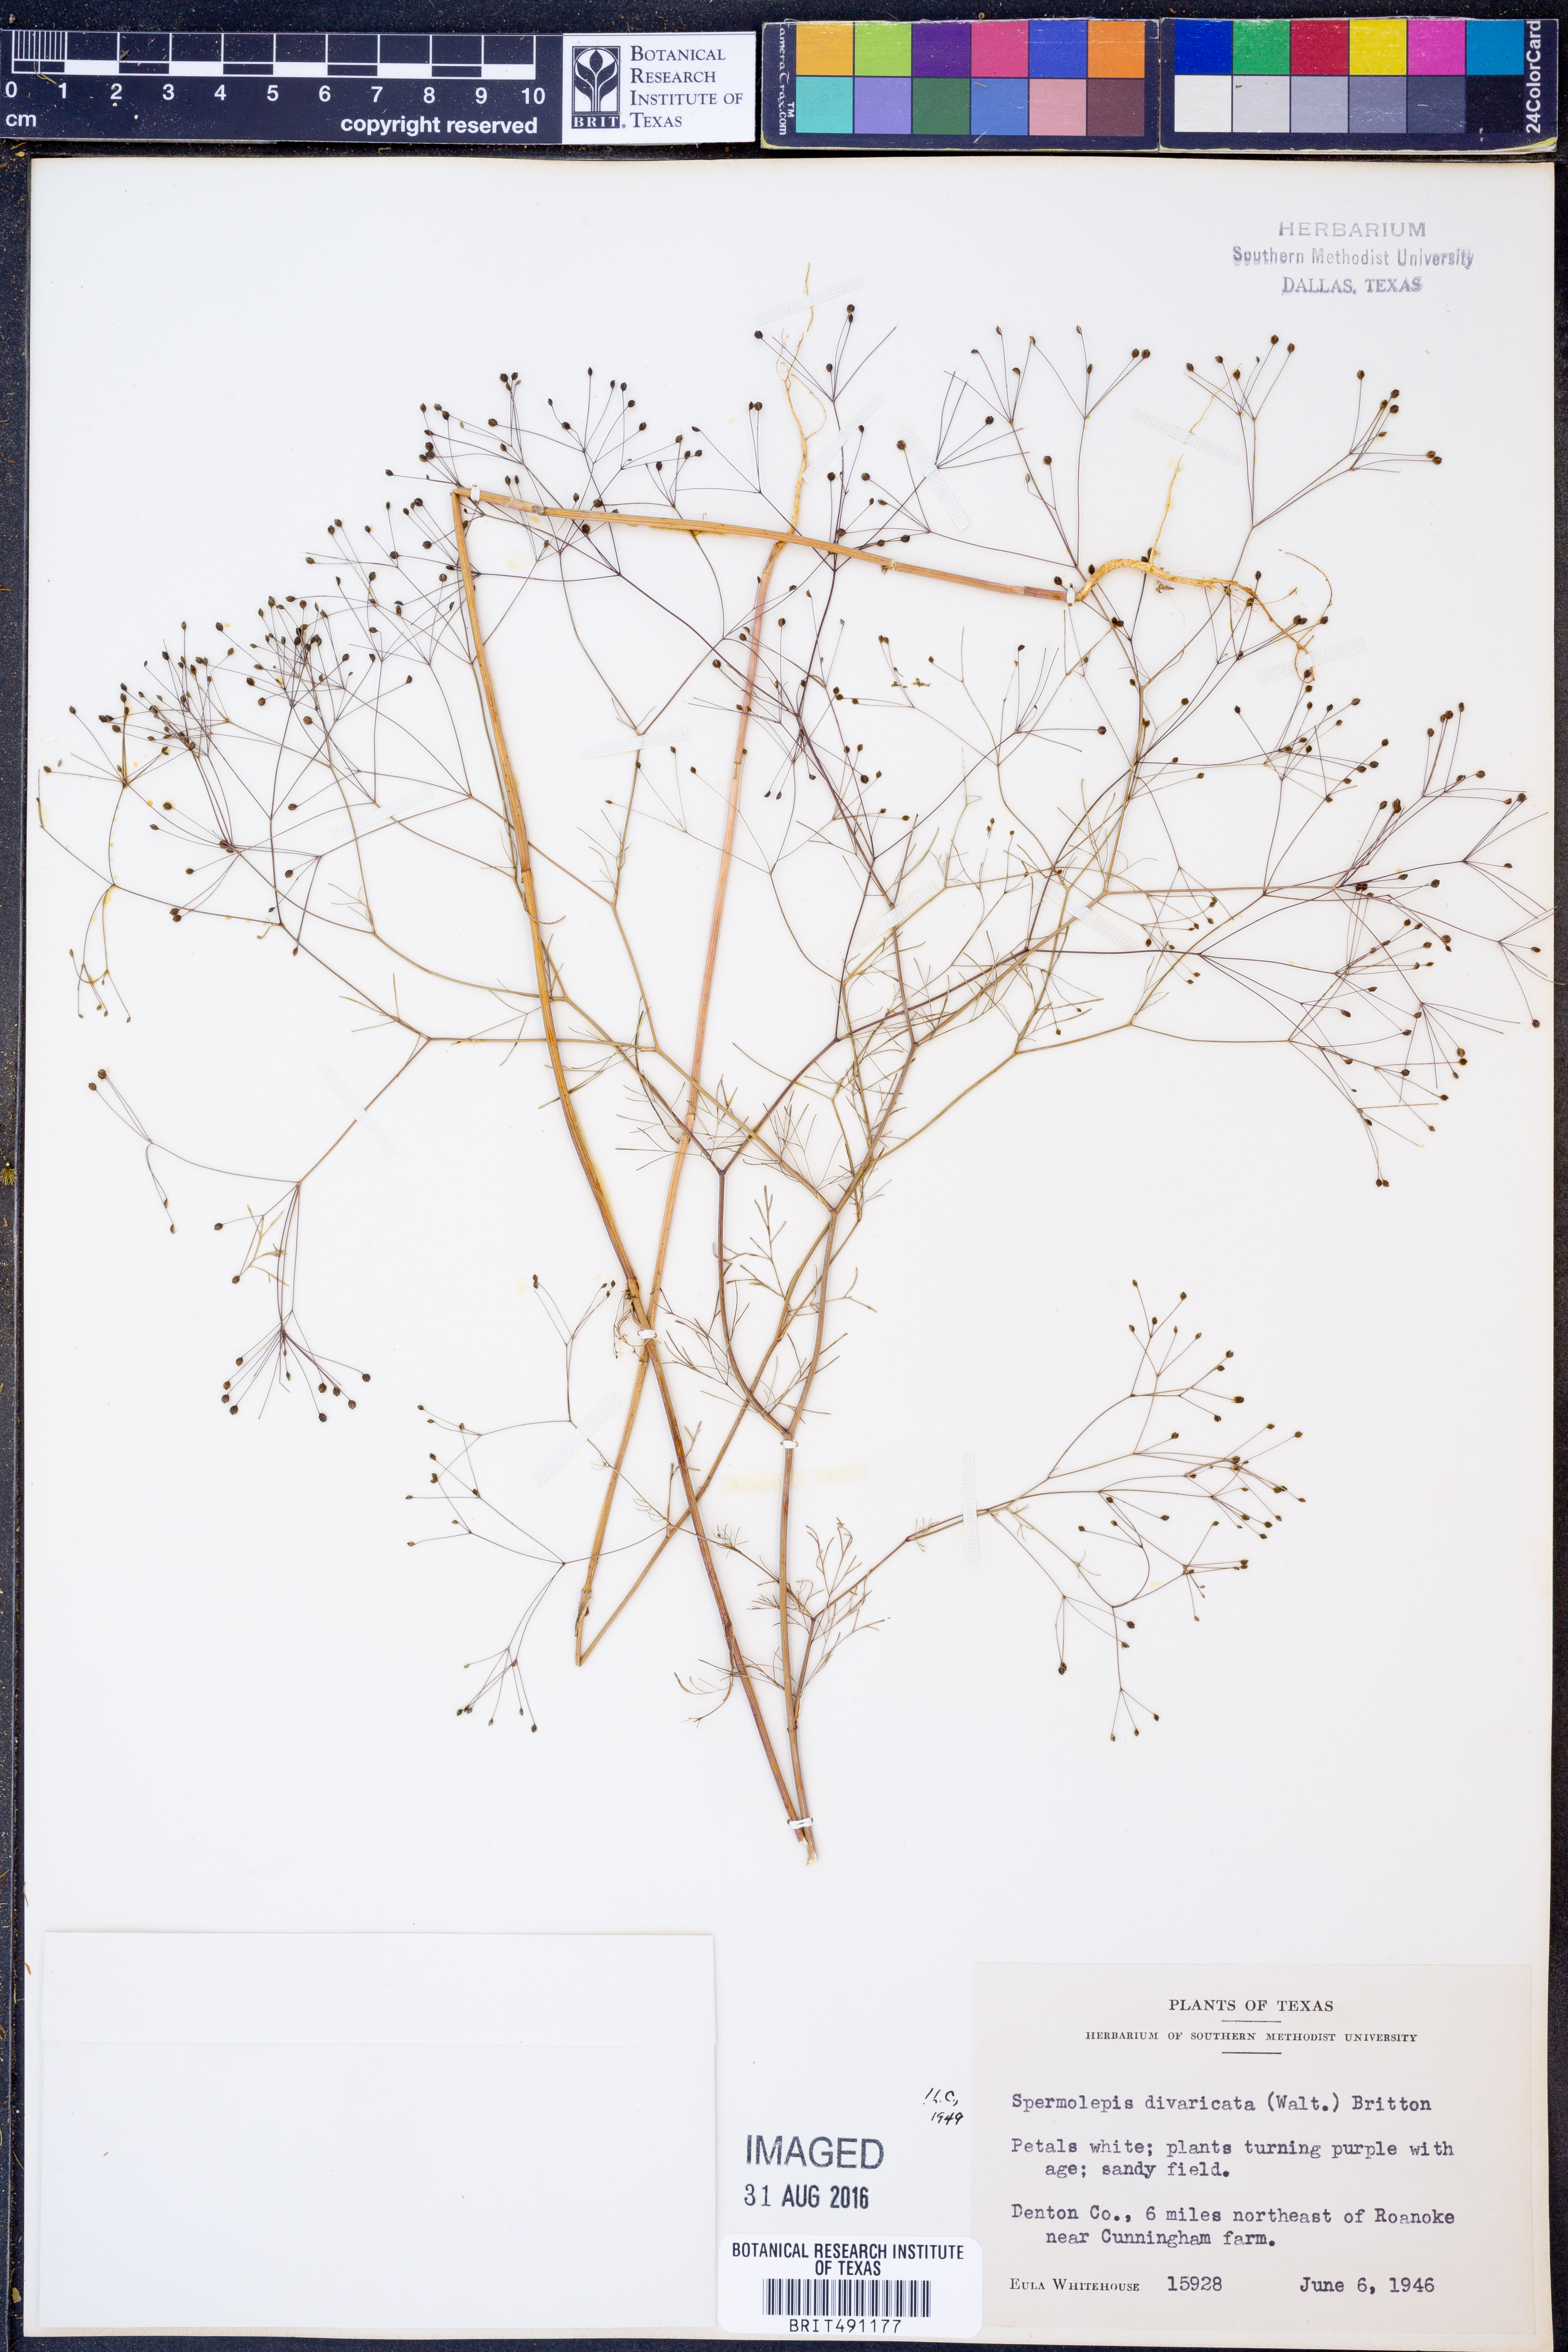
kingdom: Plantae
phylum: Tracheophyta
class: Magnoliopsida
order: Apiales
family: Apiaceae
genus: Spermolepis
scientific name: Spermolepis divaricata
